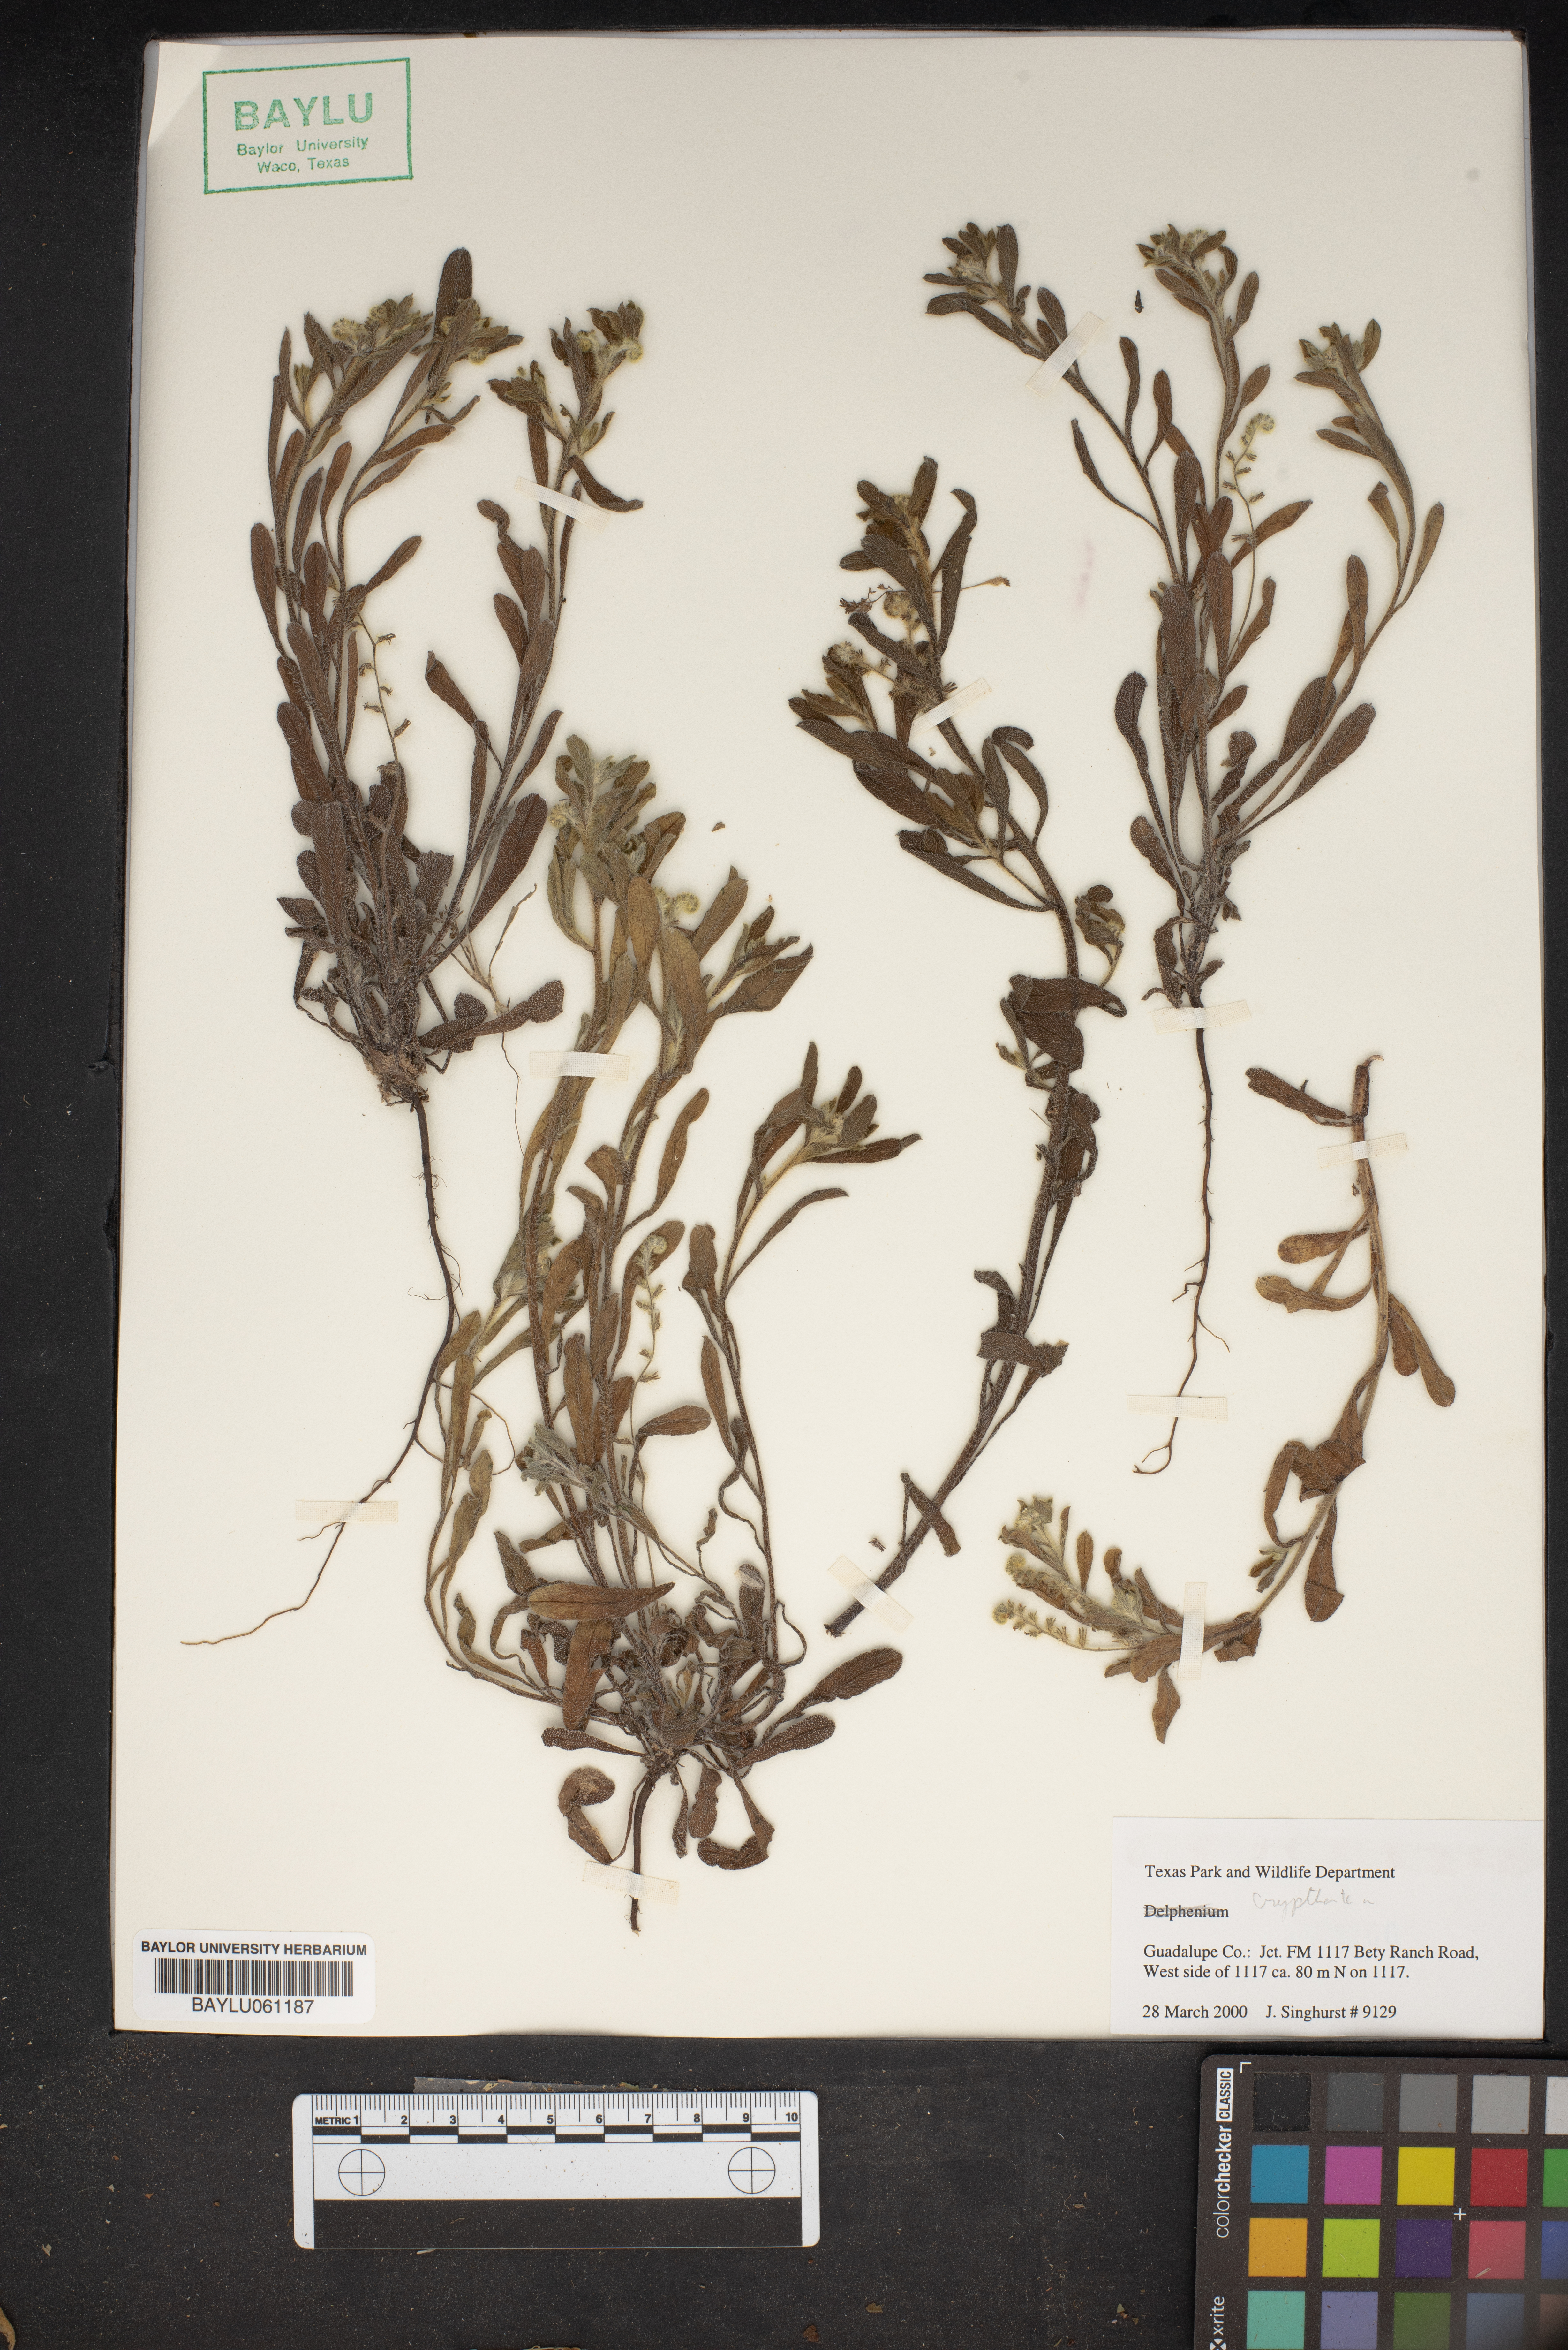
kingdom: Plantae
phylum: Tracheophyta
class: Magnoliopsida
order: Boraginales
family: Boraginaceae
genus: Cryptantha
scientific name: Cryptantha
